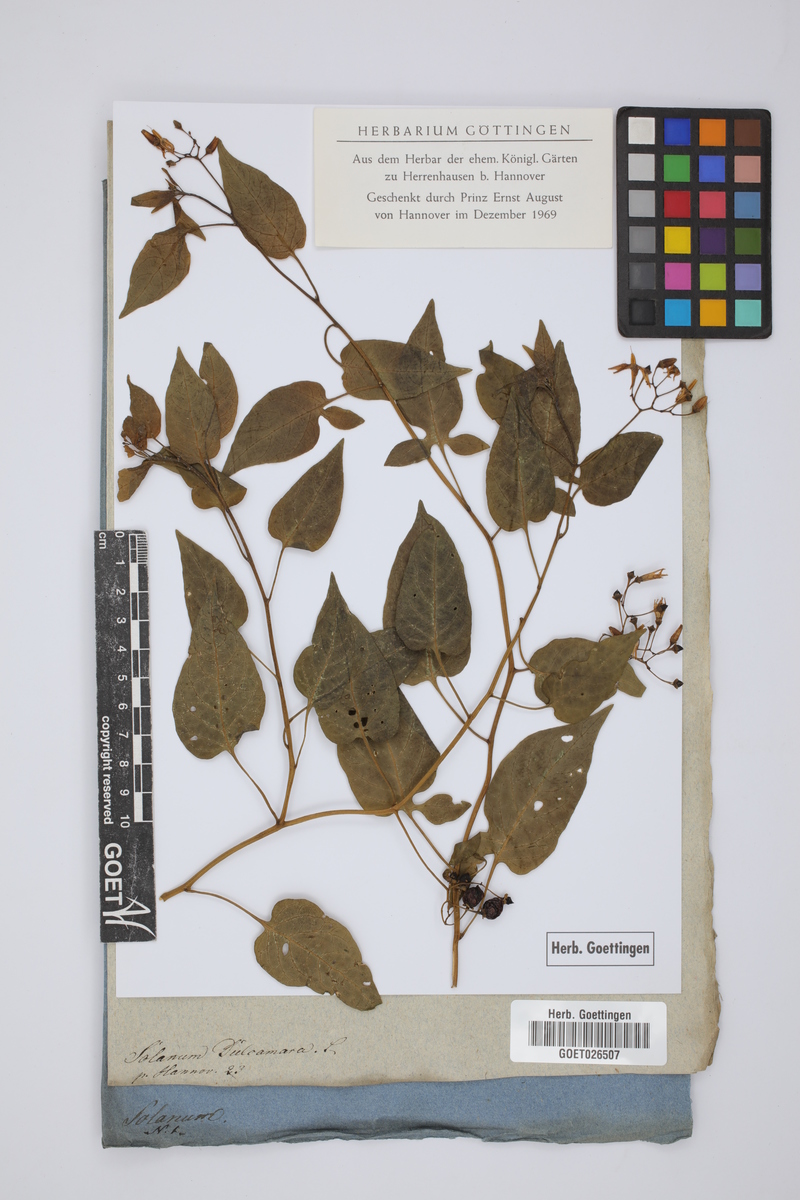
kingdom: Plantae
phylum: Tracheophyta
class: Magnoliopsida
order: Solanales
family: Solanaceae
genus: Solanum
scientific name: Solanum dulcamara
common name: Climbing nightshade
